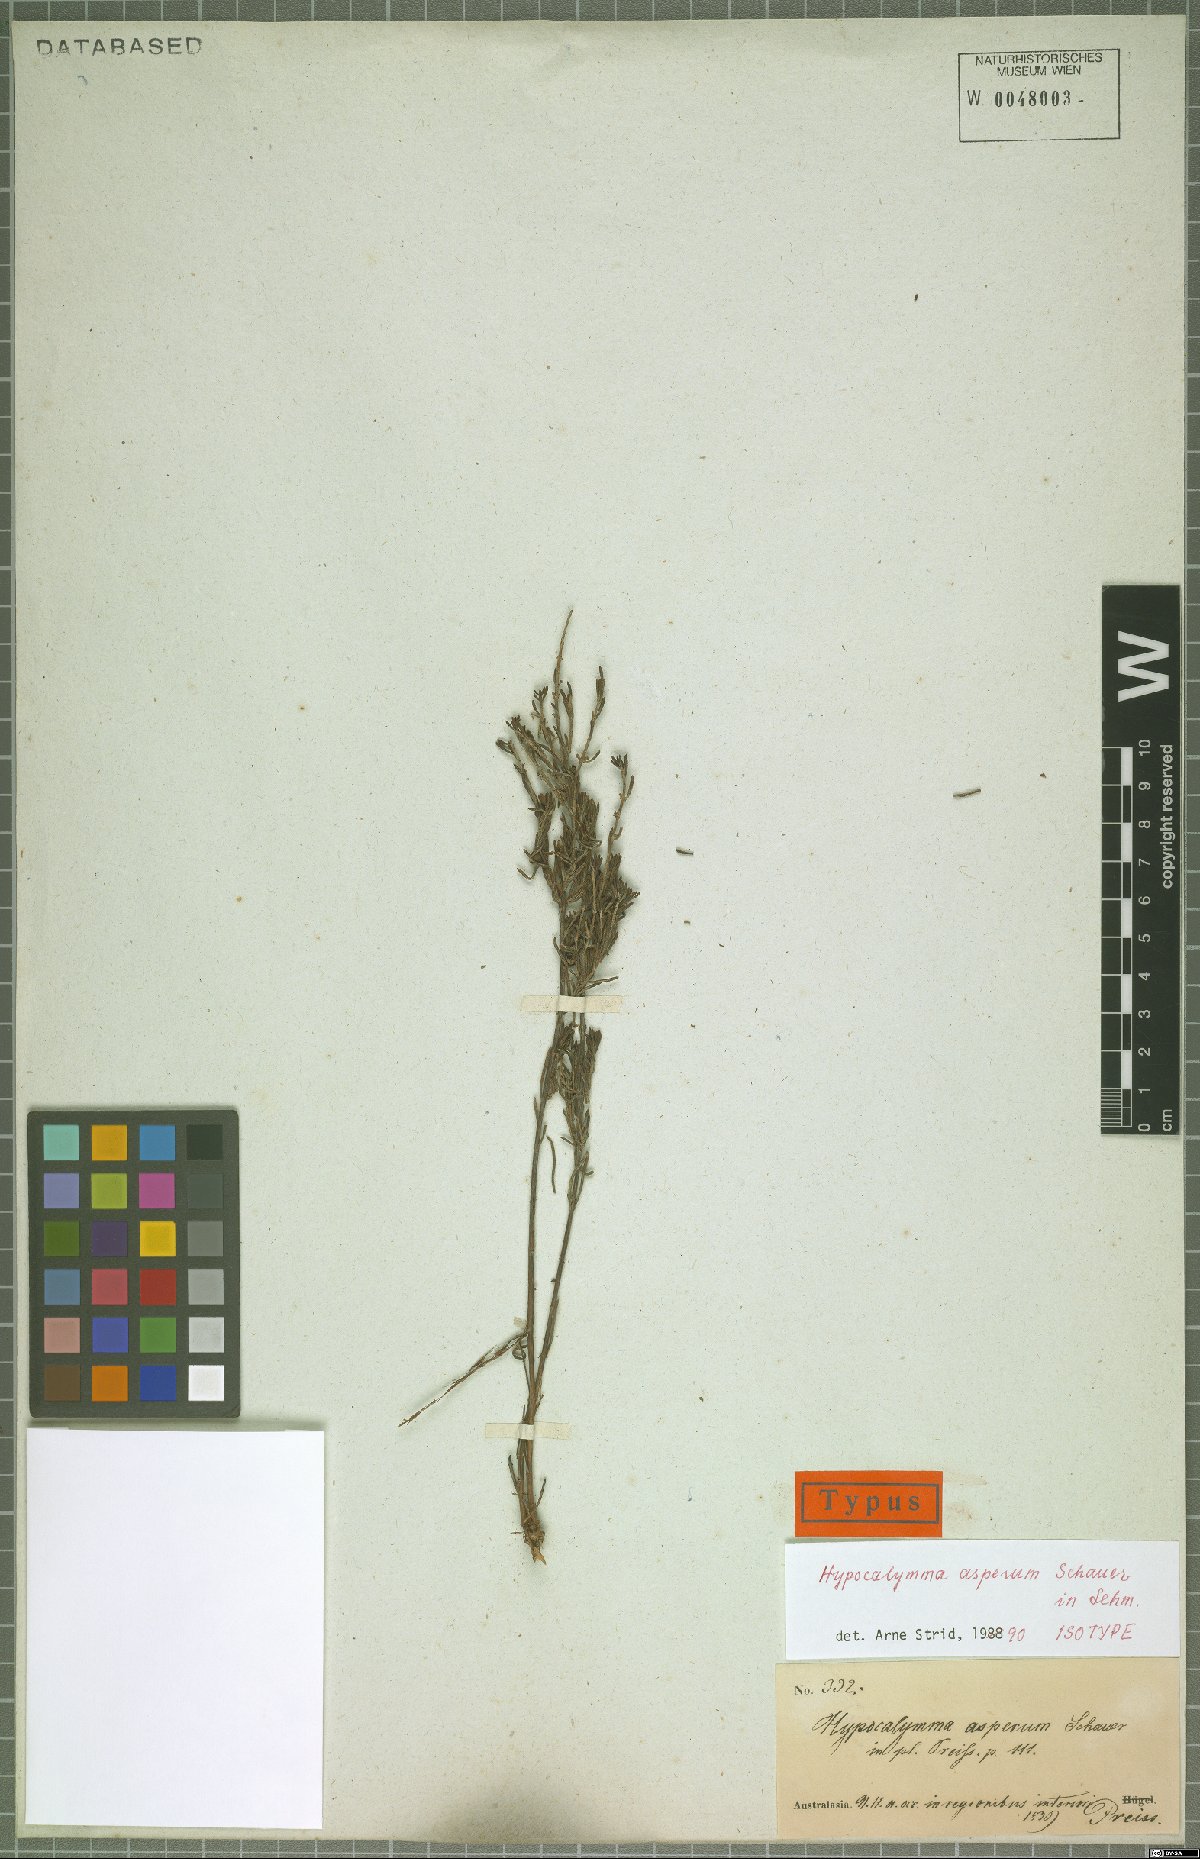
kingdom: Plantae
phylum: Tracheophyta
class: Magnoliopsida
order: Myrtales
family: Myrtaceae
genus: Hypocalymma
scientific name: Hypocalymma asperum
